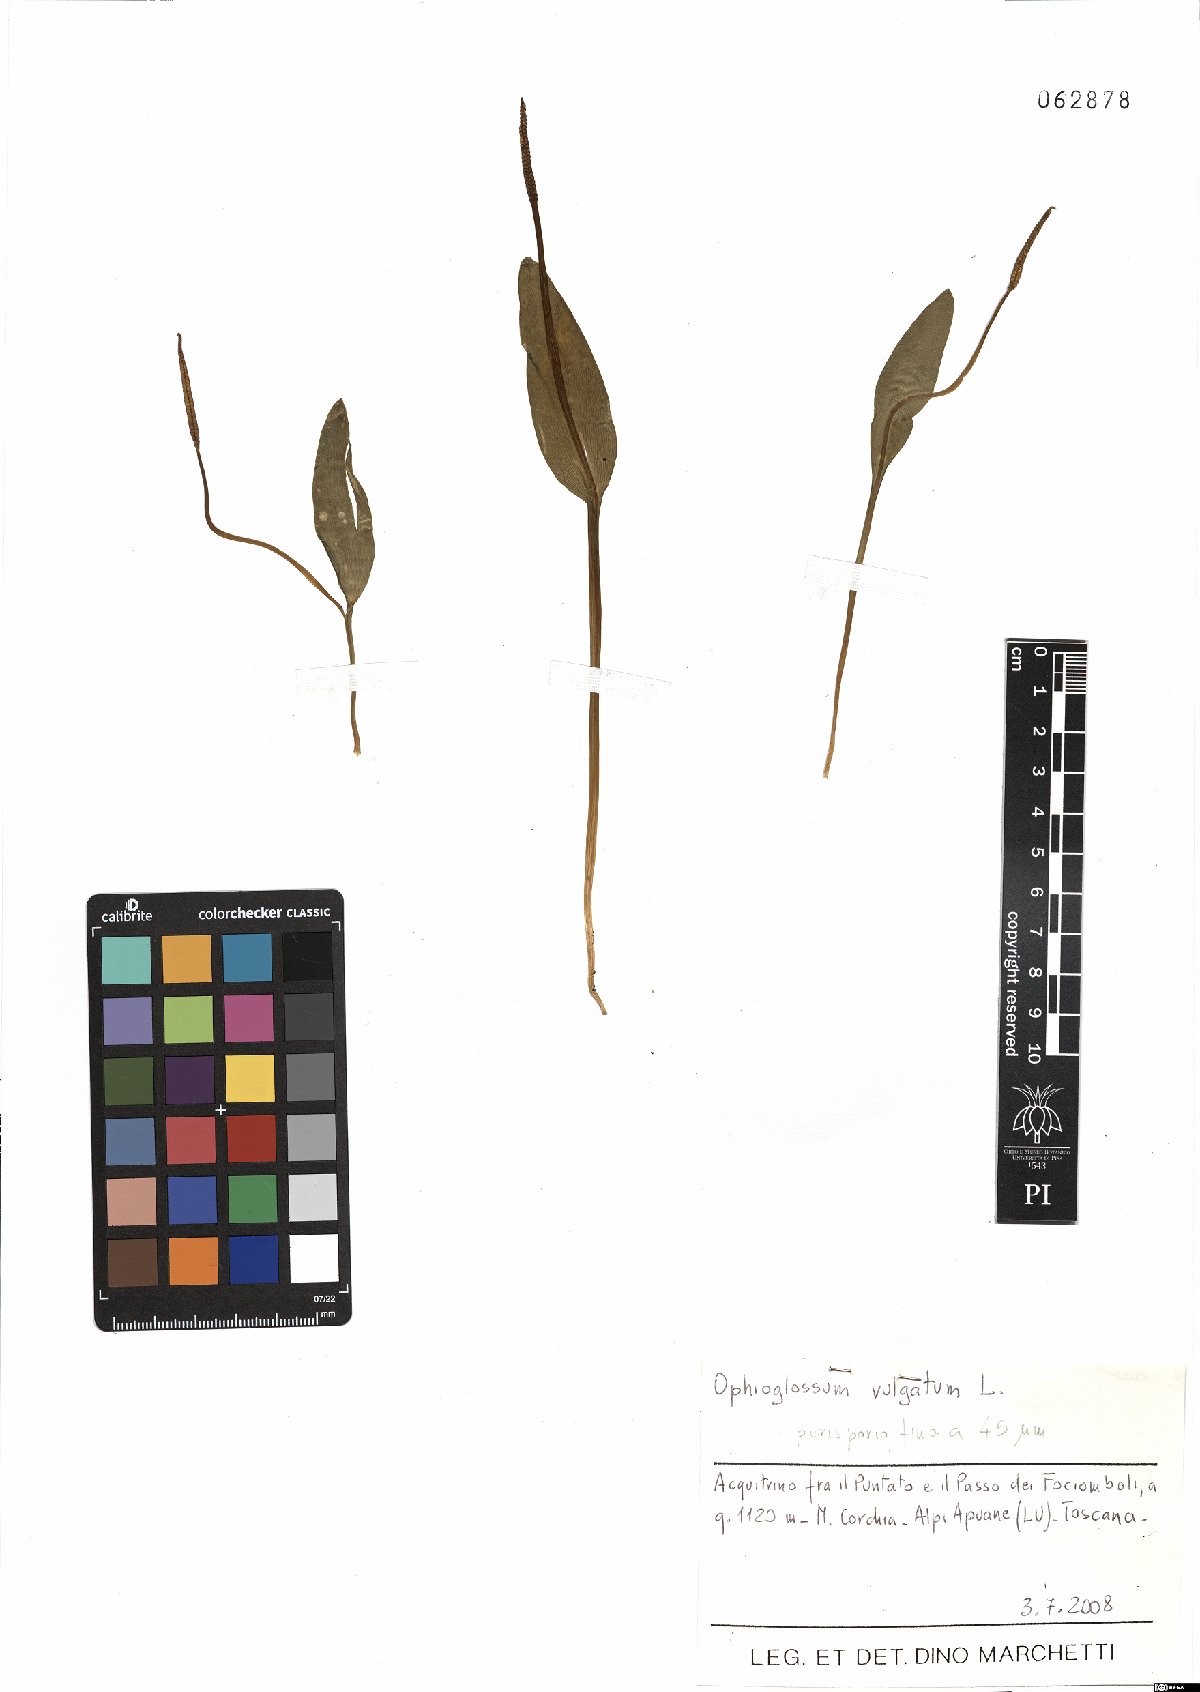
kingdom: Plantae
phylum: Tracheophyta
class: Polypodiopsida
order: Ophioglossales
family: Ophioglossaceae
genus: Ophioglossum
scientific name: Ophioglossum vulgatum
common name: Adder's-tongue
